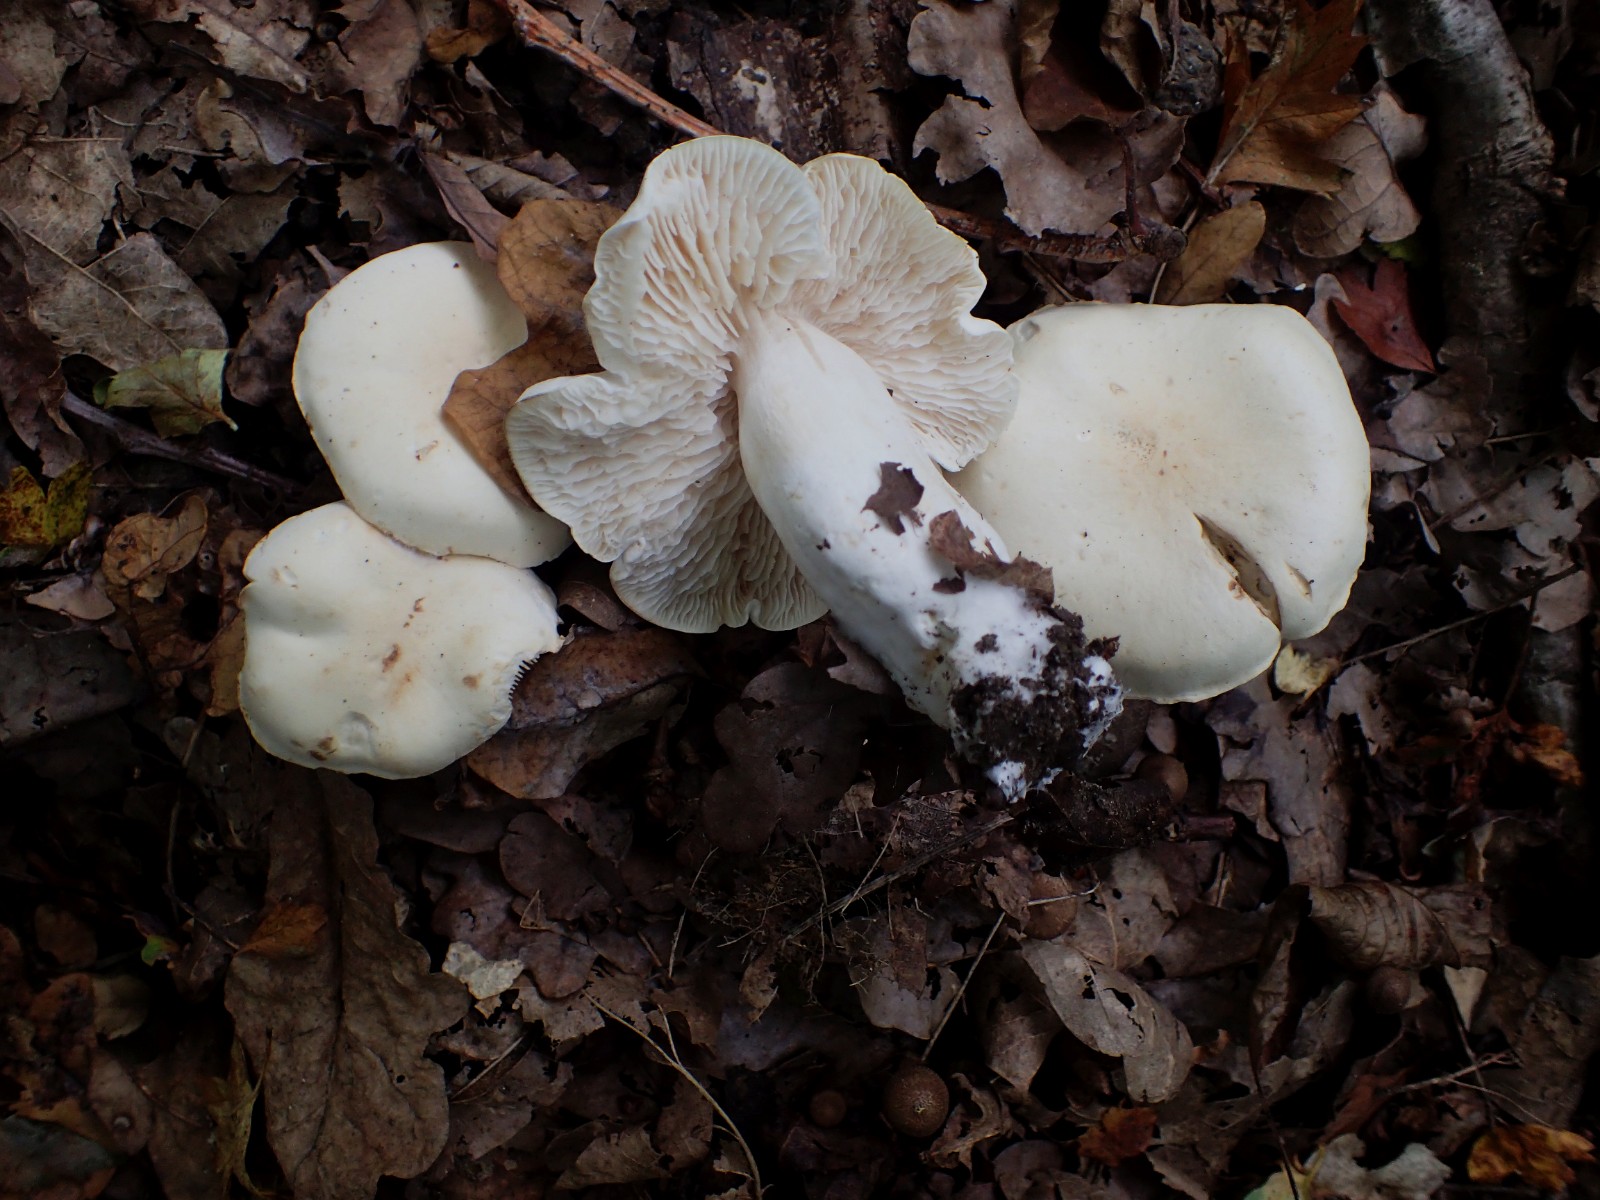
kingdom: Fungi
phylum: Basidiomycota
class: Agaricomycetes
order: Agaricales
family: Tricholomataceae
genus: Tricholoma
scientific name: Tricholoma album
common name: honning-ridderhat
